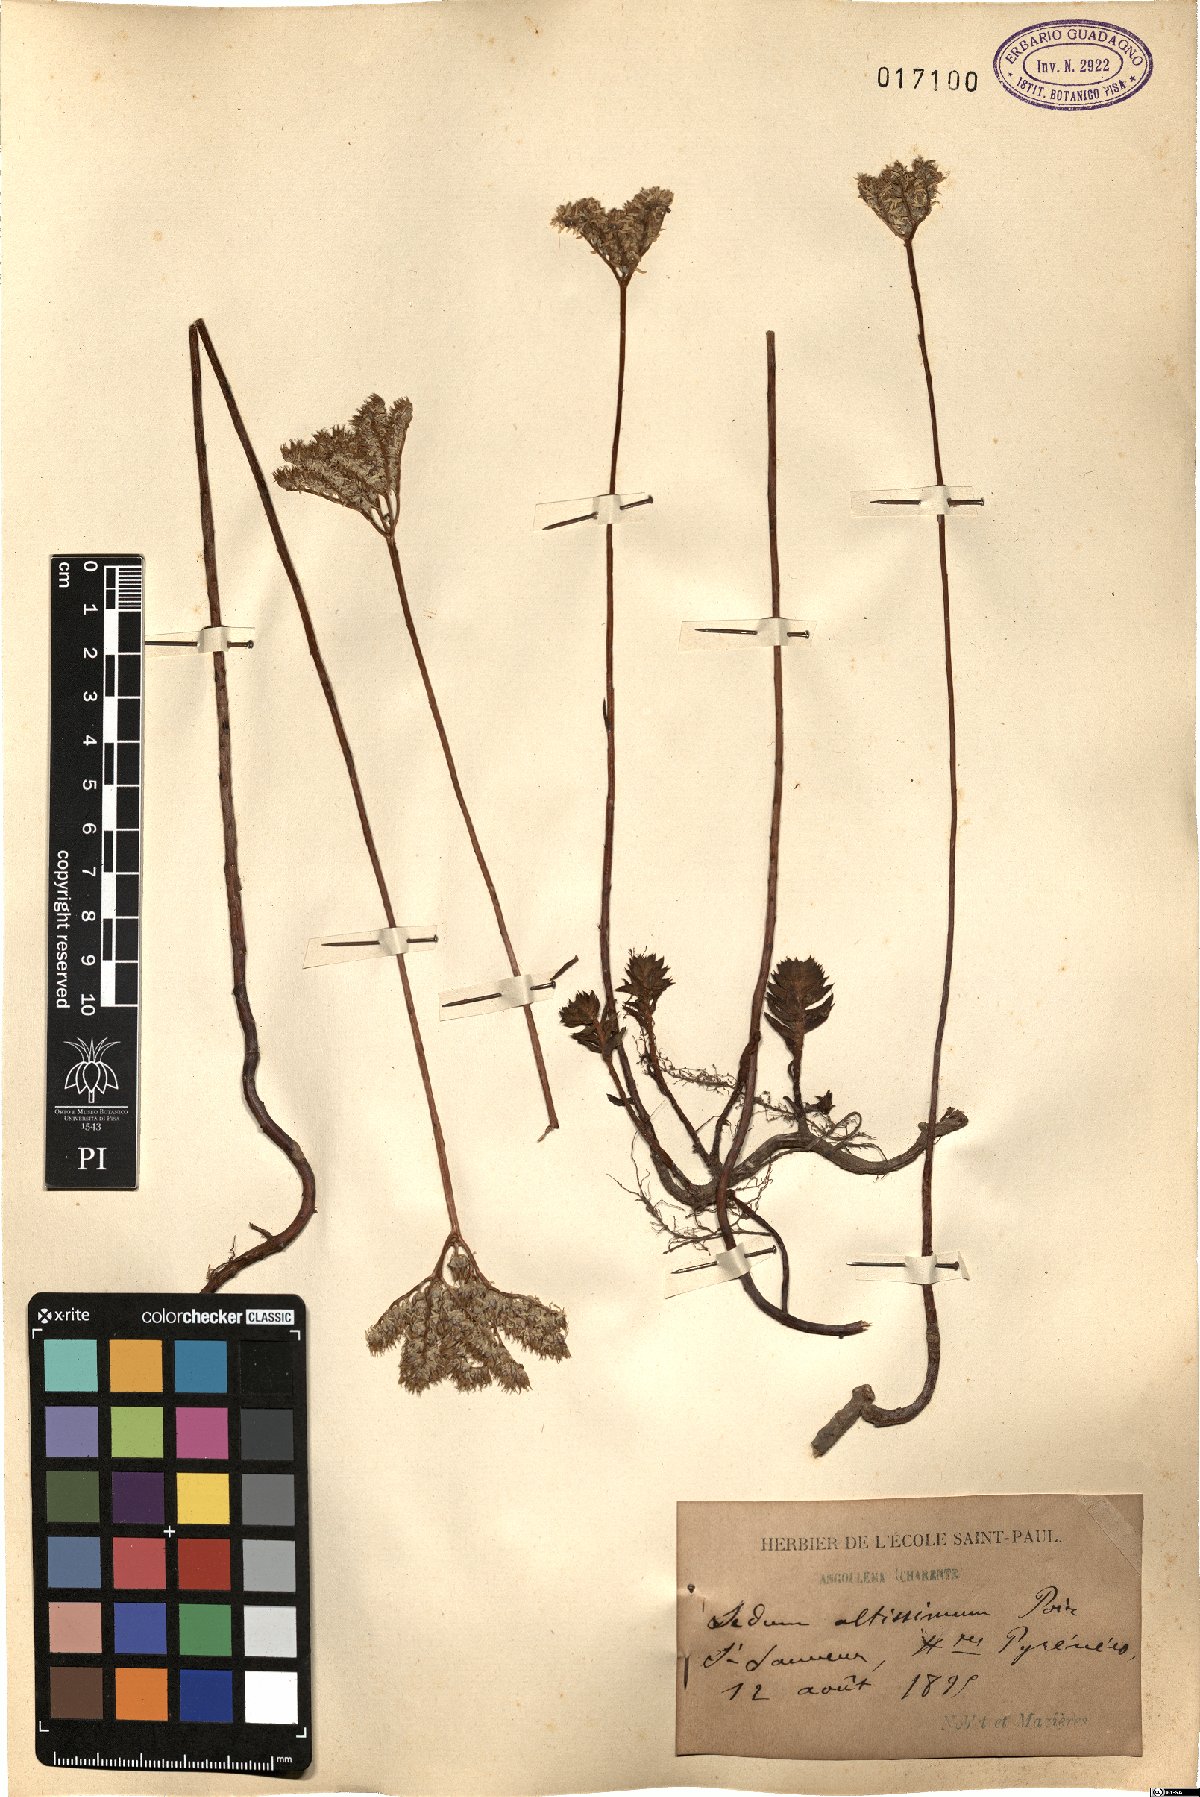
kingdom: Plantae
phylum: Tracheophyta
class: Magnoliopsida
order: Saxifragales
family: Crassulaceae
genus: Petrosedum
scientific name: Petrosedum sediforme
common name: Pale stonecrop
